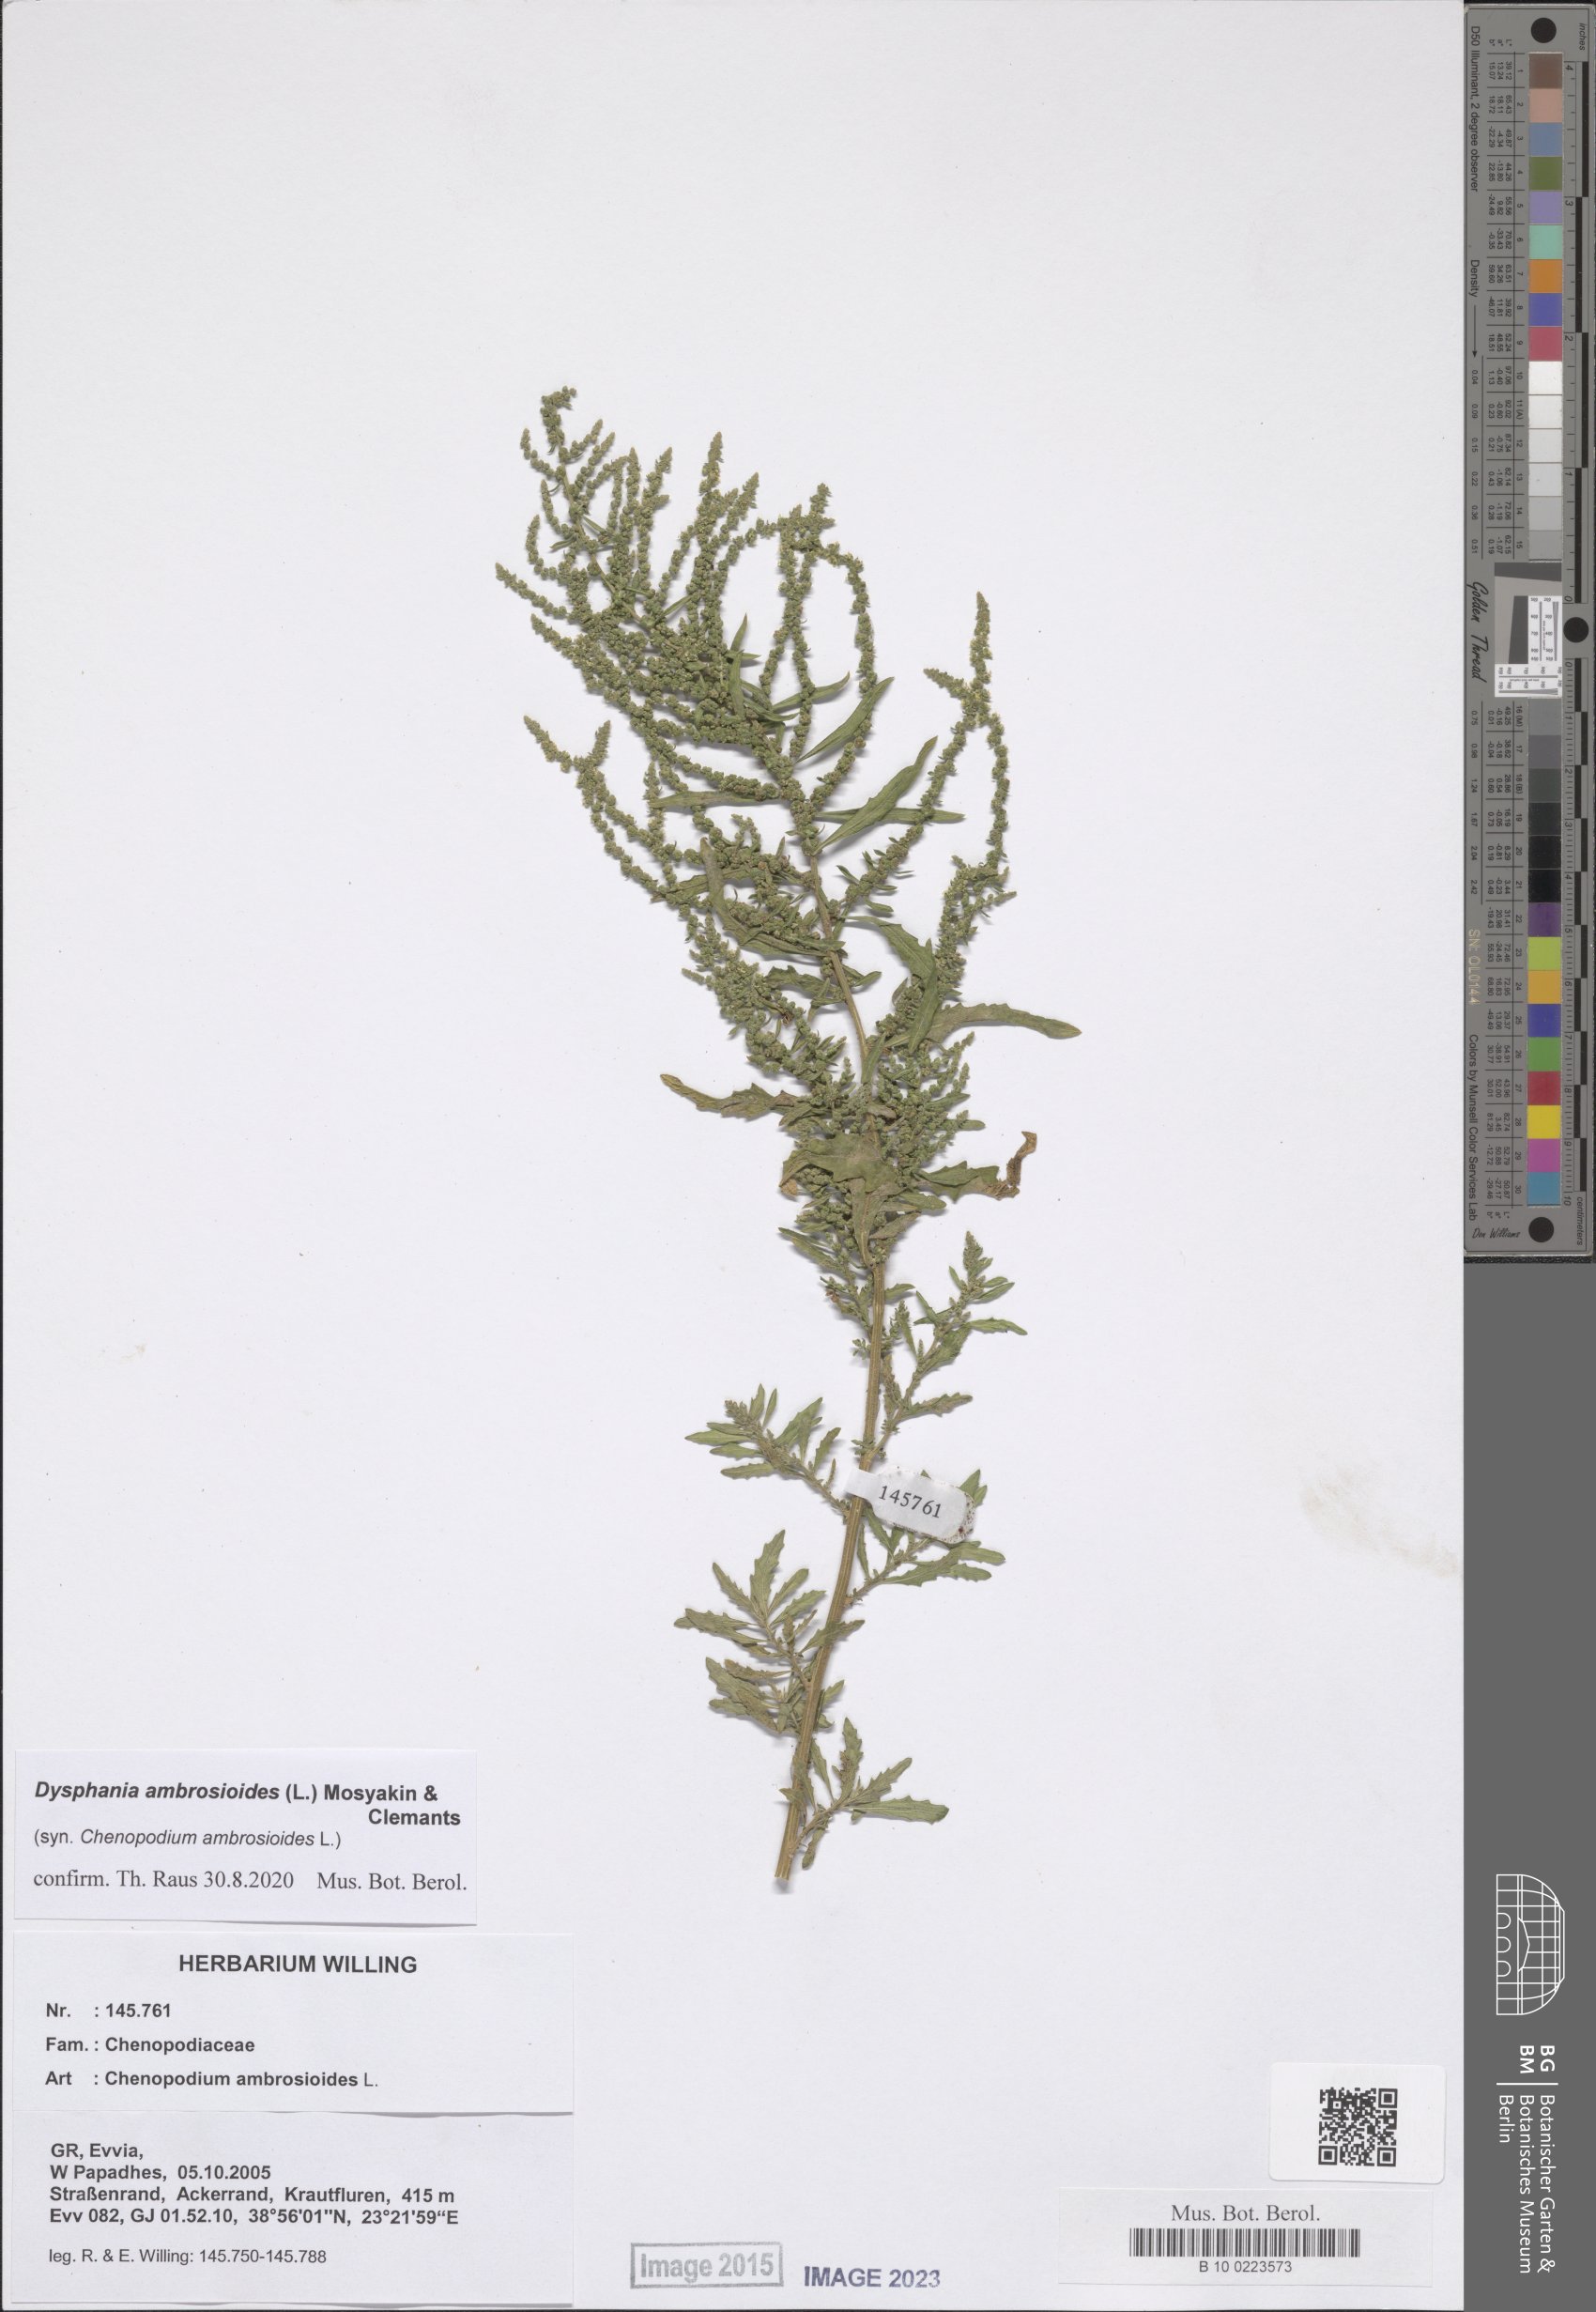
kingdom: Plantae
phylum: Tracheophyta
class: Magnoliopsida
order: Caryophyllales
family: Amaranthaceae
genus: Dysphania
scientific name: Dysphania ambrosioides
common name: Wormseed
